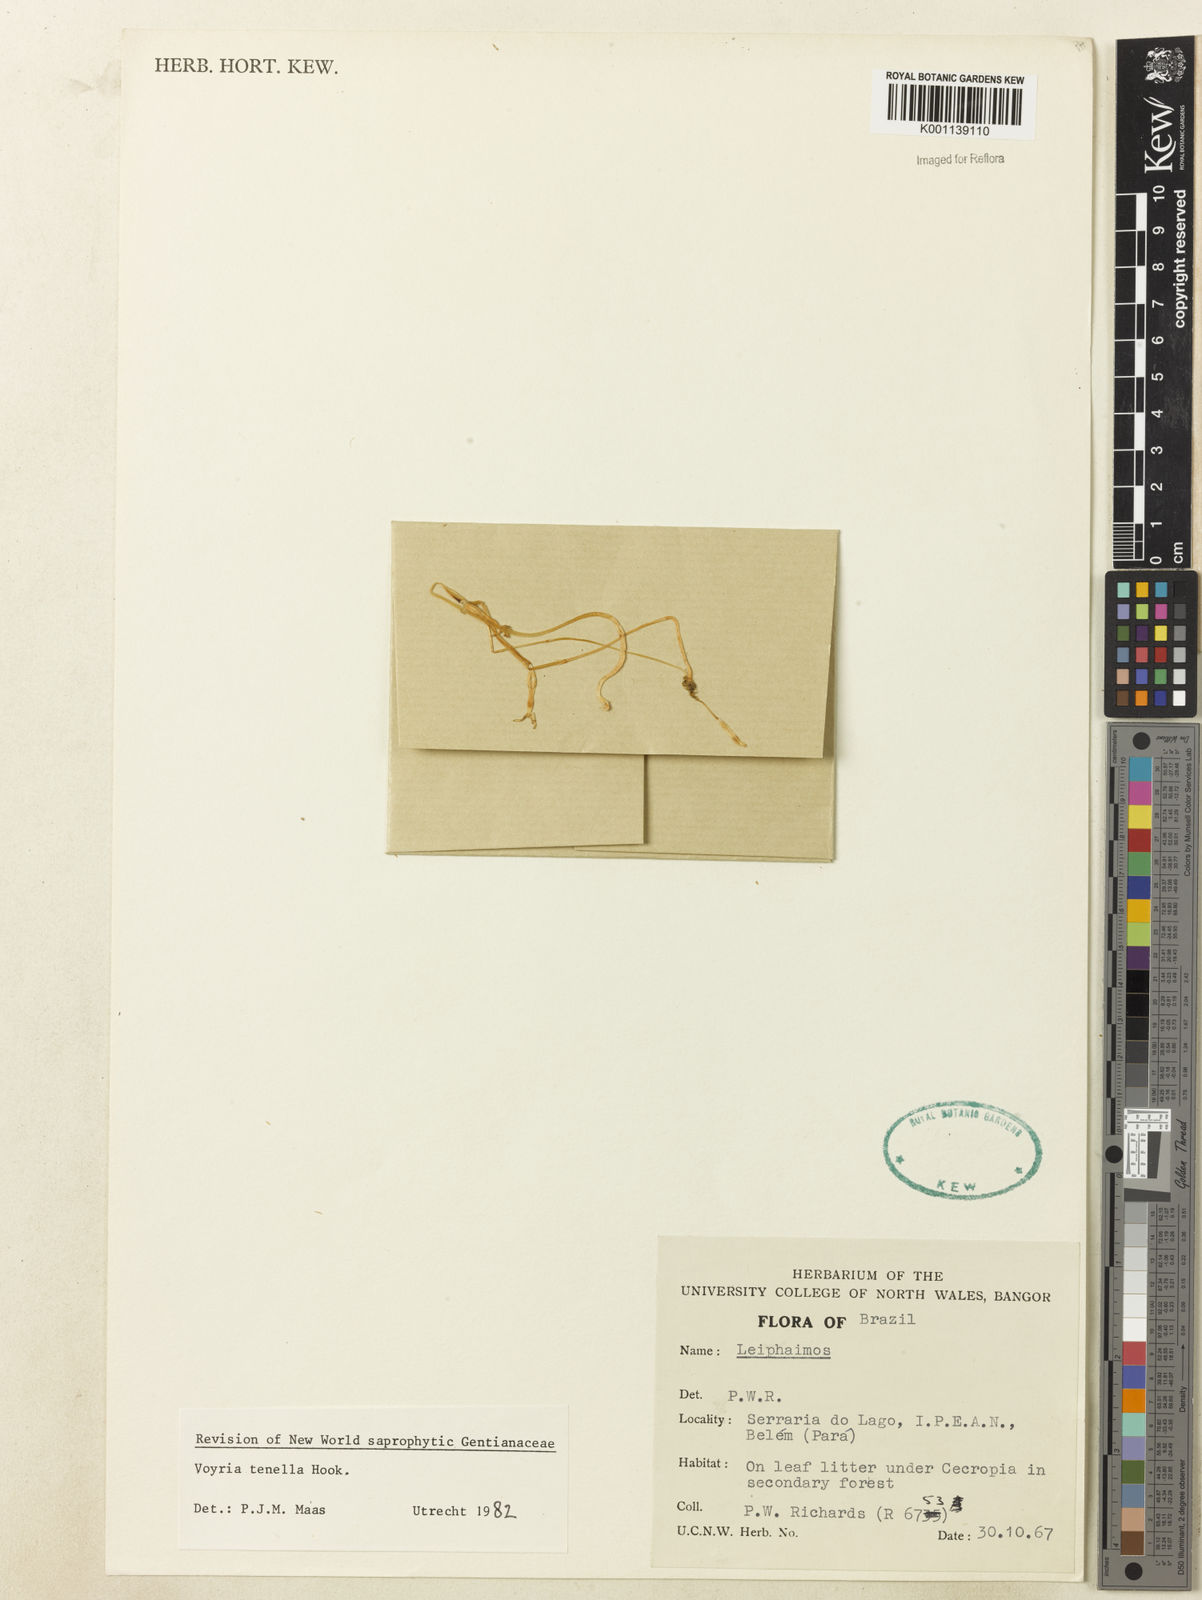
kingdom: Plantae
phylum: Tracheophyta
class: Magnoliopsida
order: Gentianales
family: Gentianaceae
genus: Voyria
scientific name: Voyria tenella
